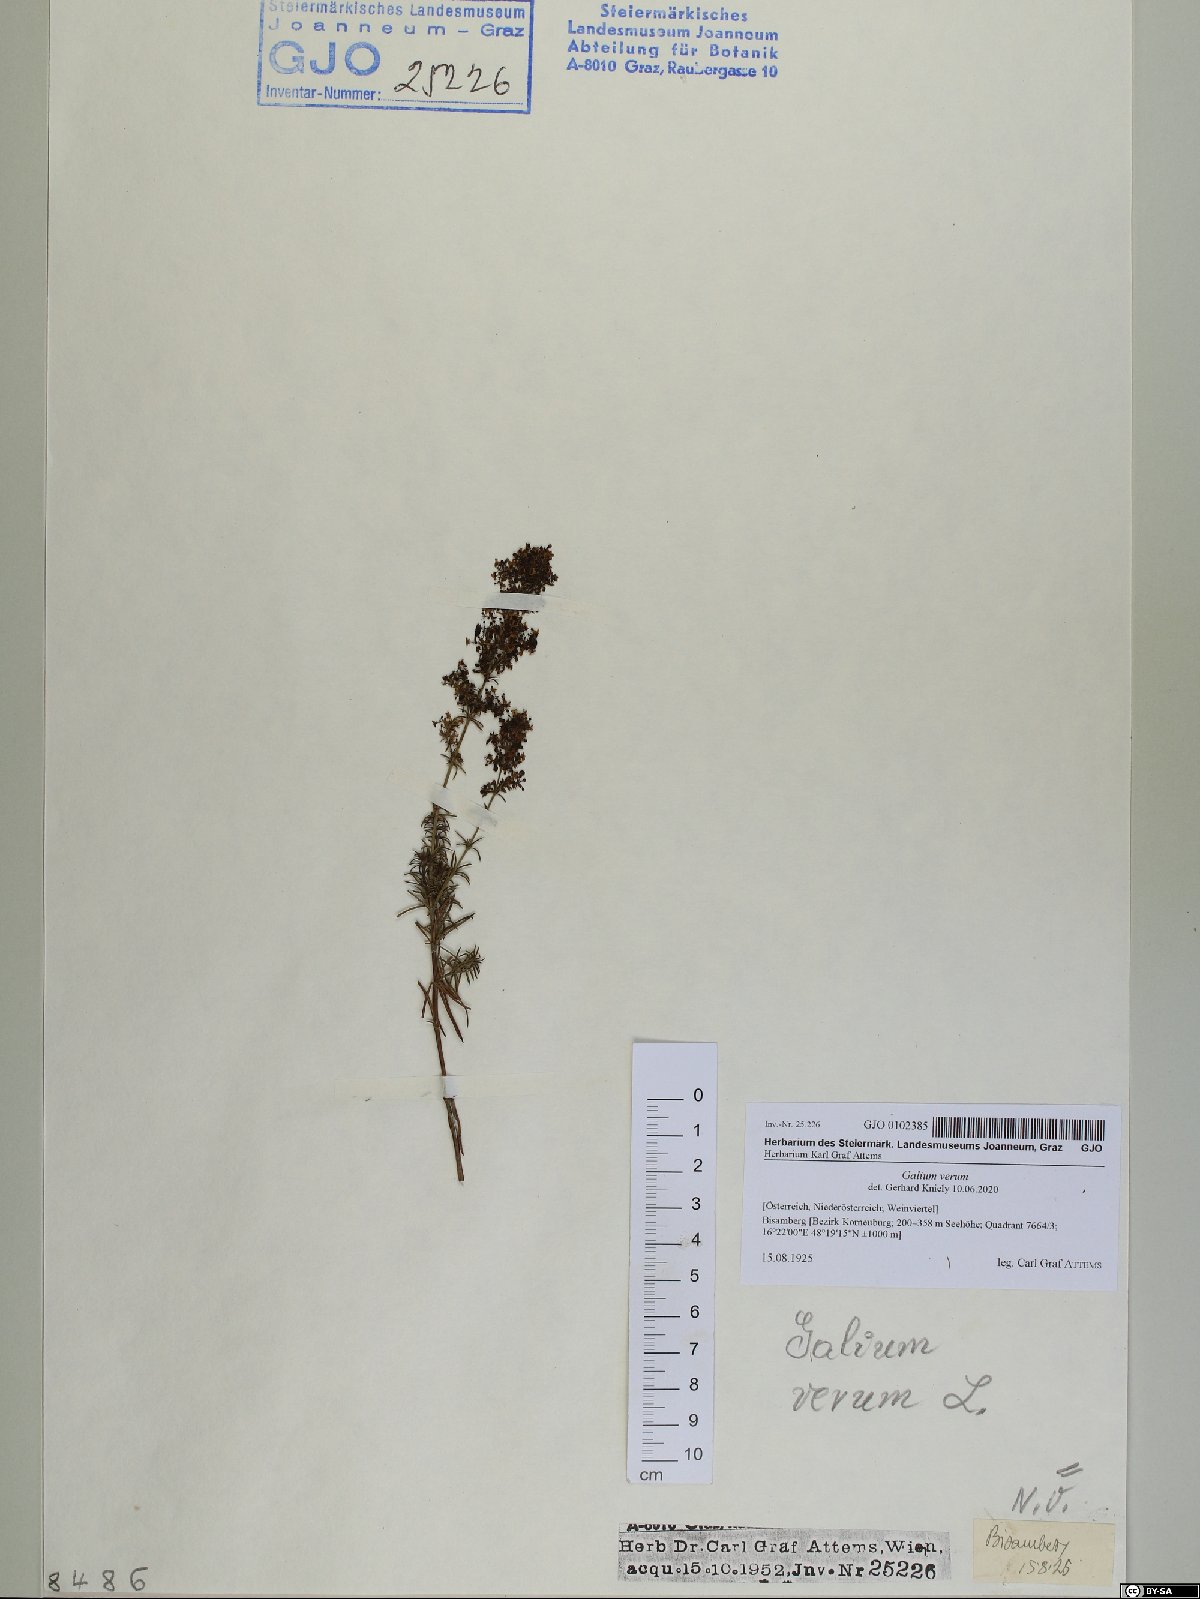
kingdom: Plantae
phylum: Tracheophyta
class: Magnoliopsida
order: Gentianales
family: Rubiaceae
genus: Galium
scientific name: Galium verum
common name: Lady's bedstraw
